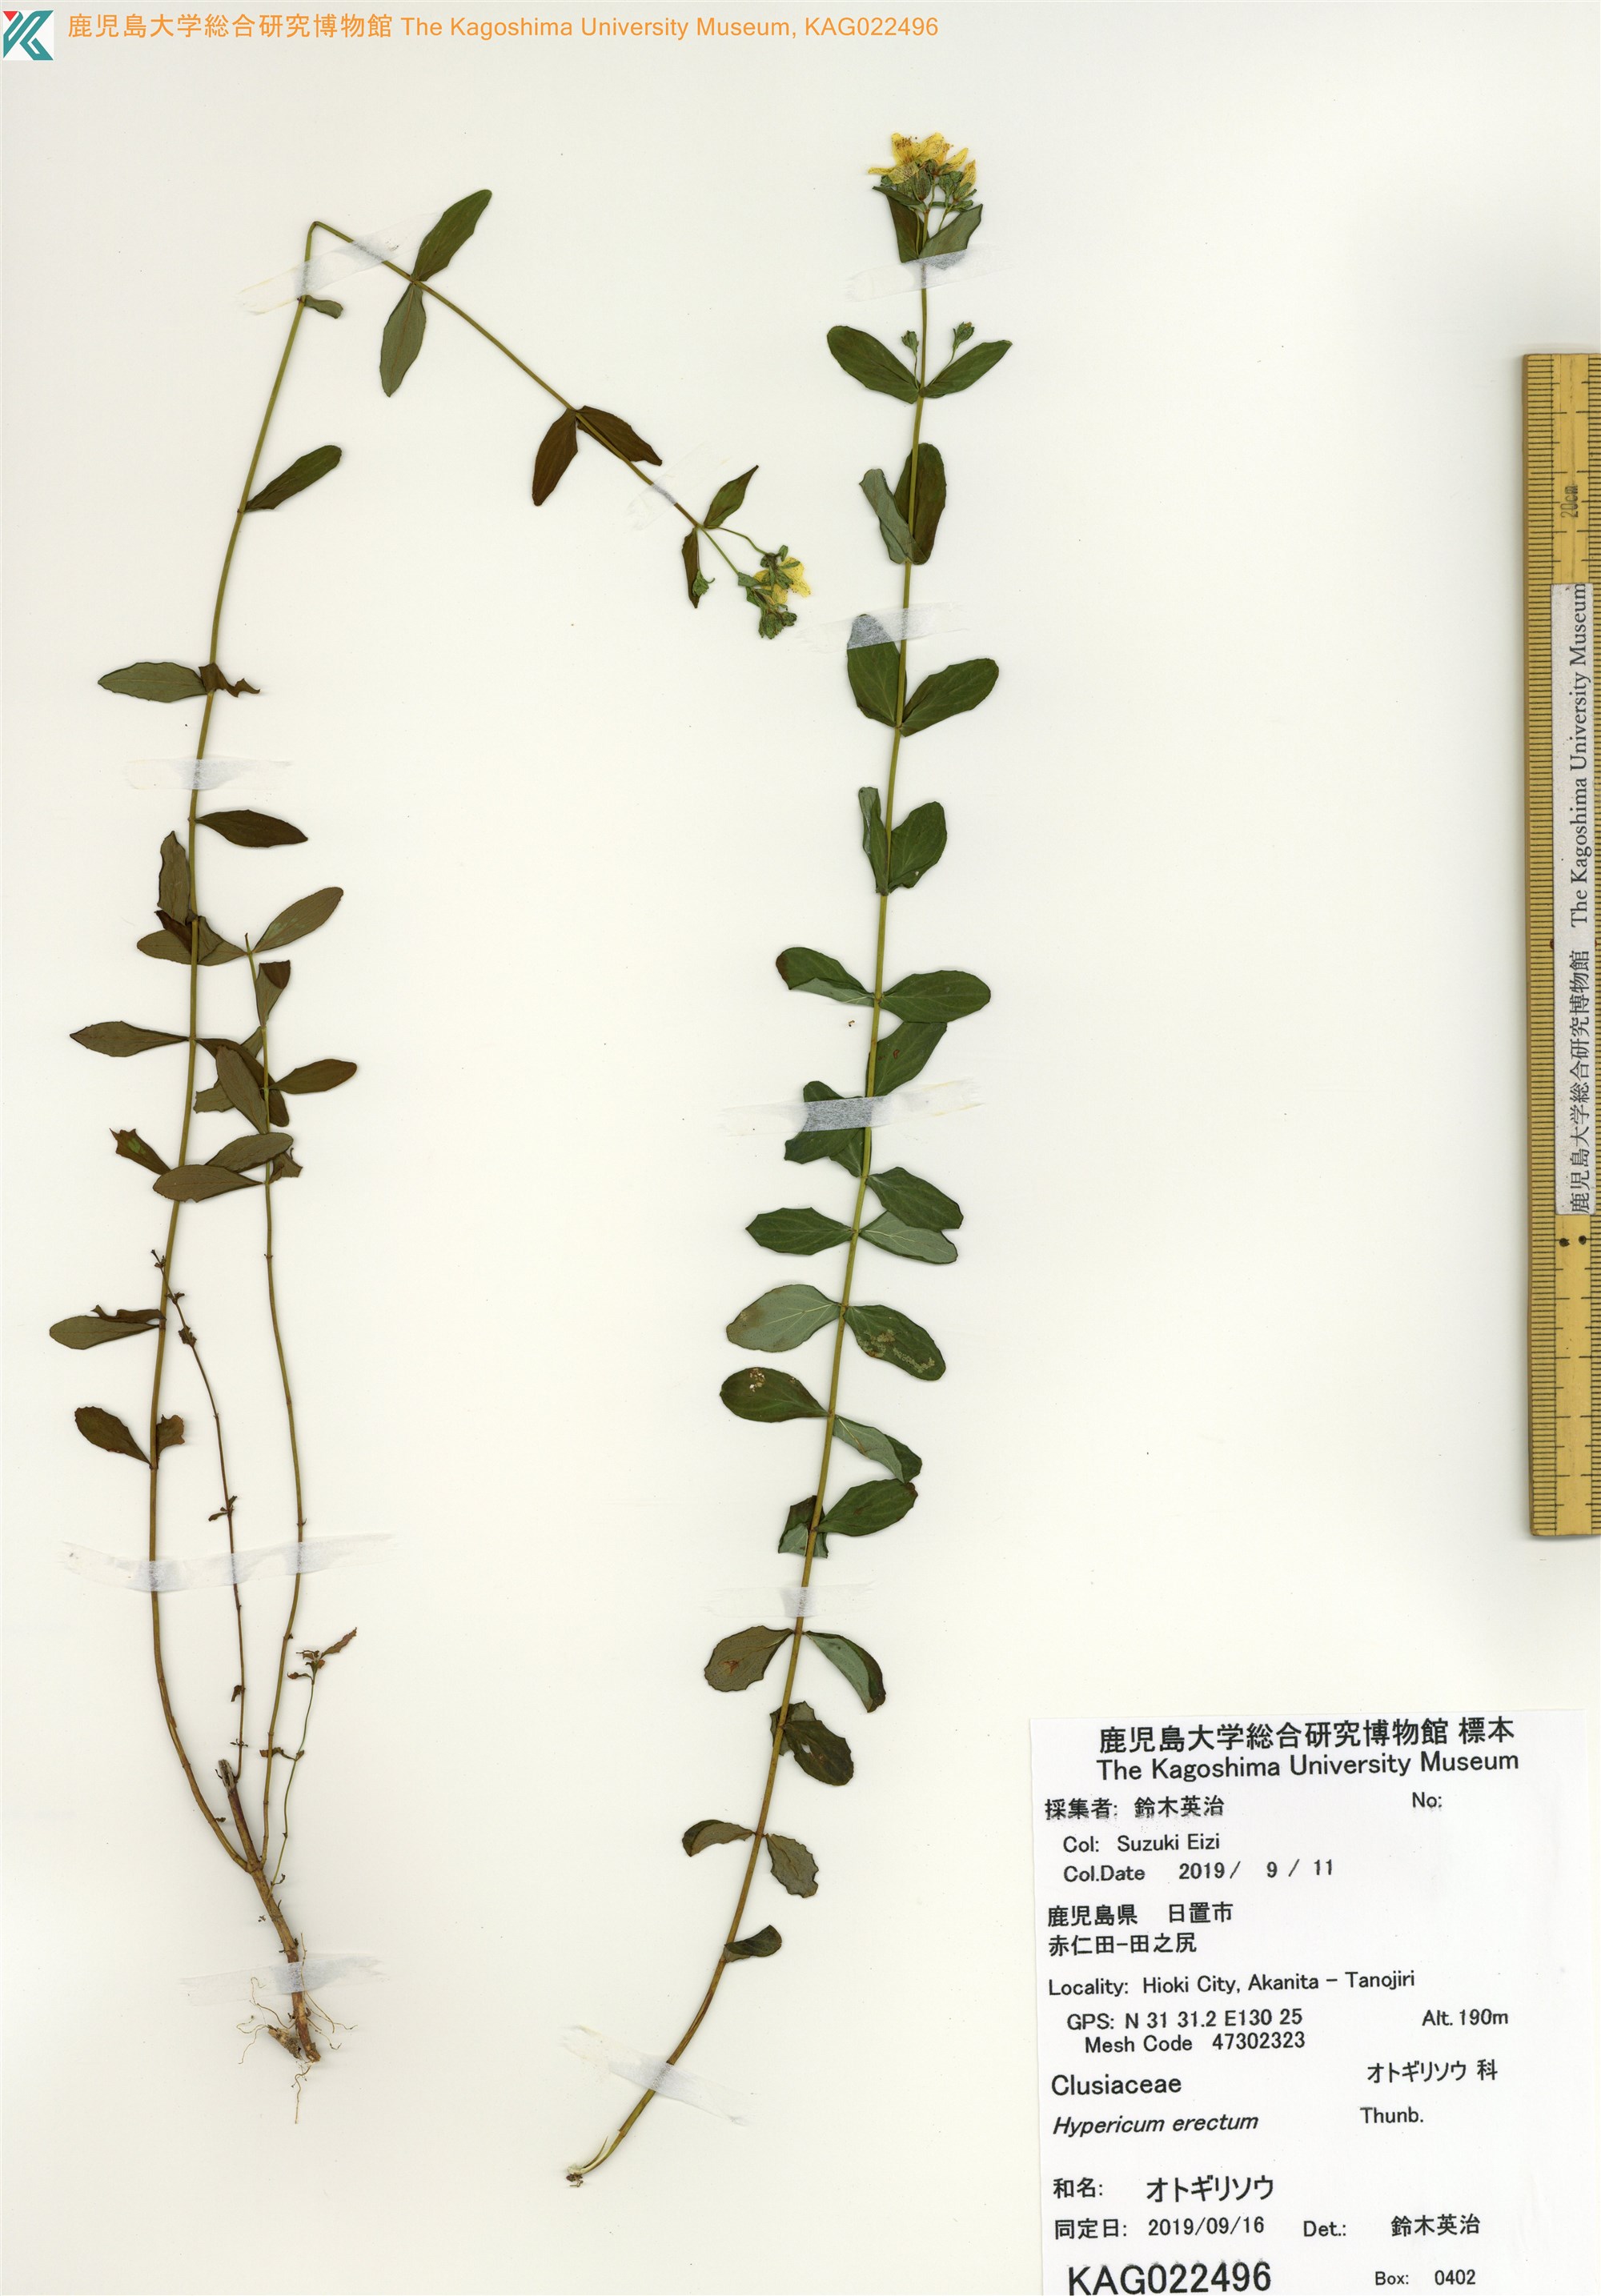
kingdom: Plantae
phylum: Tracheophyta
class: Magnoliopsida
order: Malpighiales
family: Hypericaceae
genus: Hypericum
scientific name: Hypericum erectum
